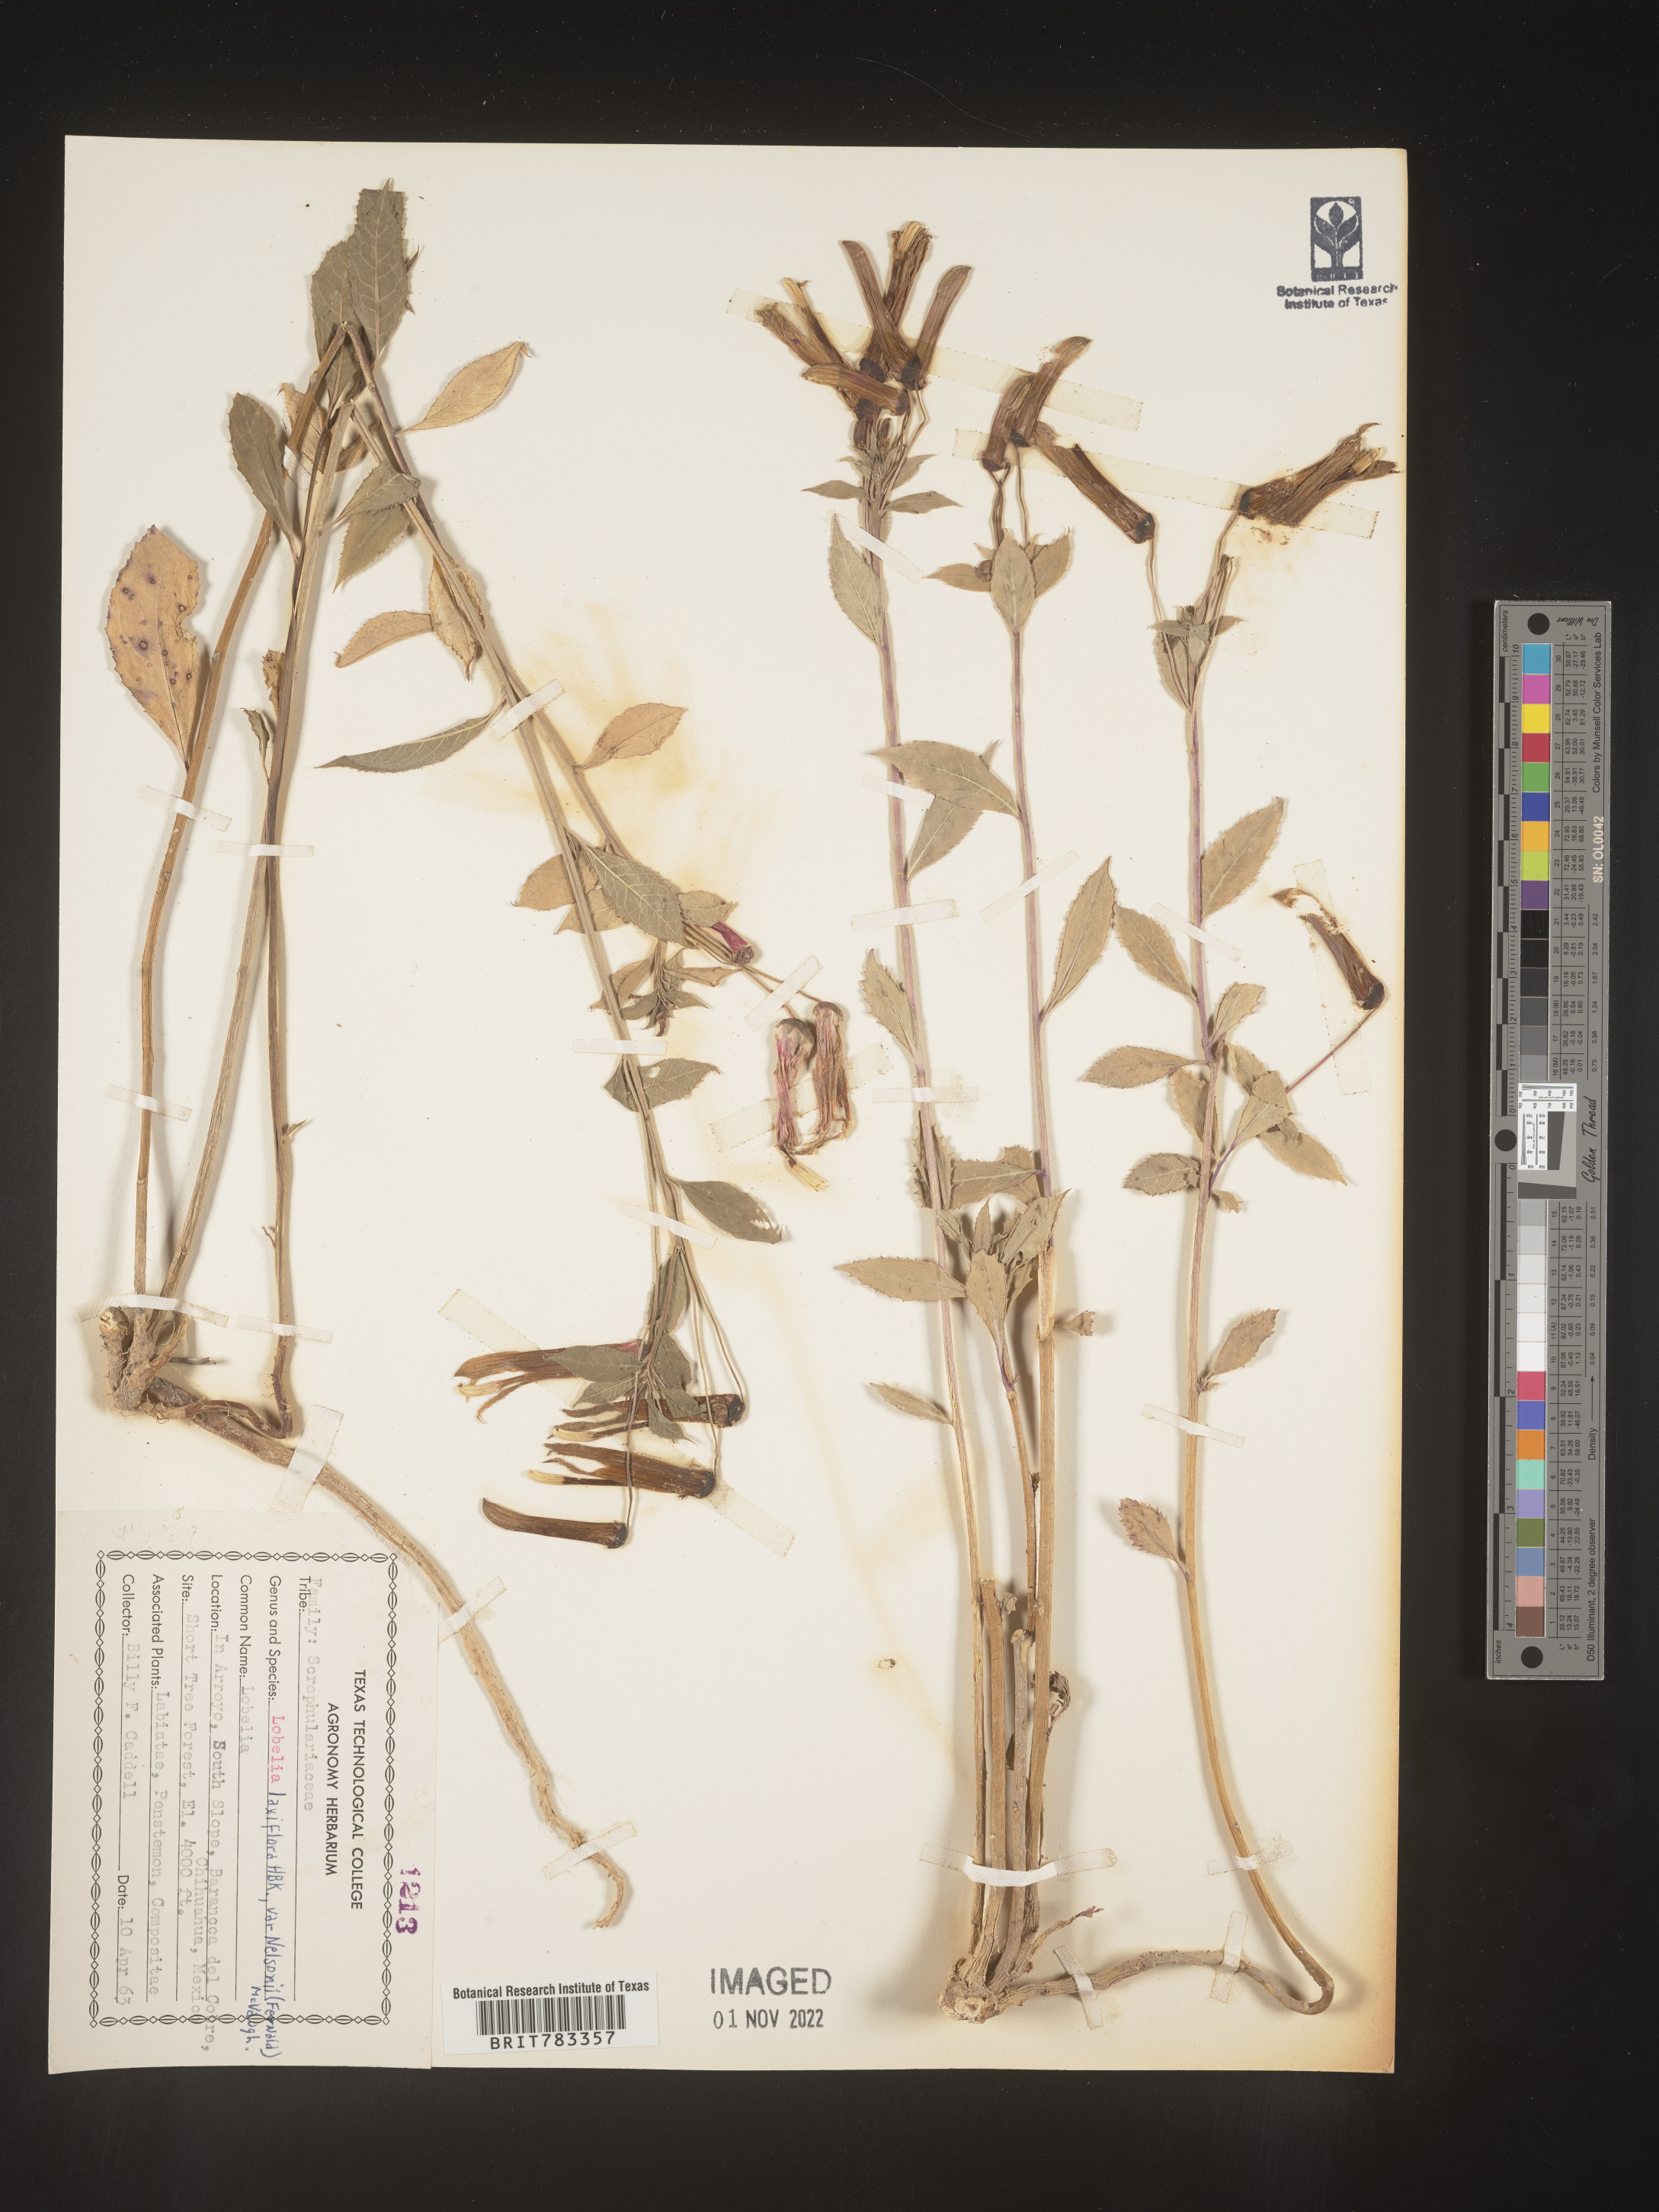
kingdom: Plantae
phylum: Tracheophyta
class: Magnoliopsida
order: Asterales
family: Campanulaceae
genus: Lobelia
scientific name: Lobelia
